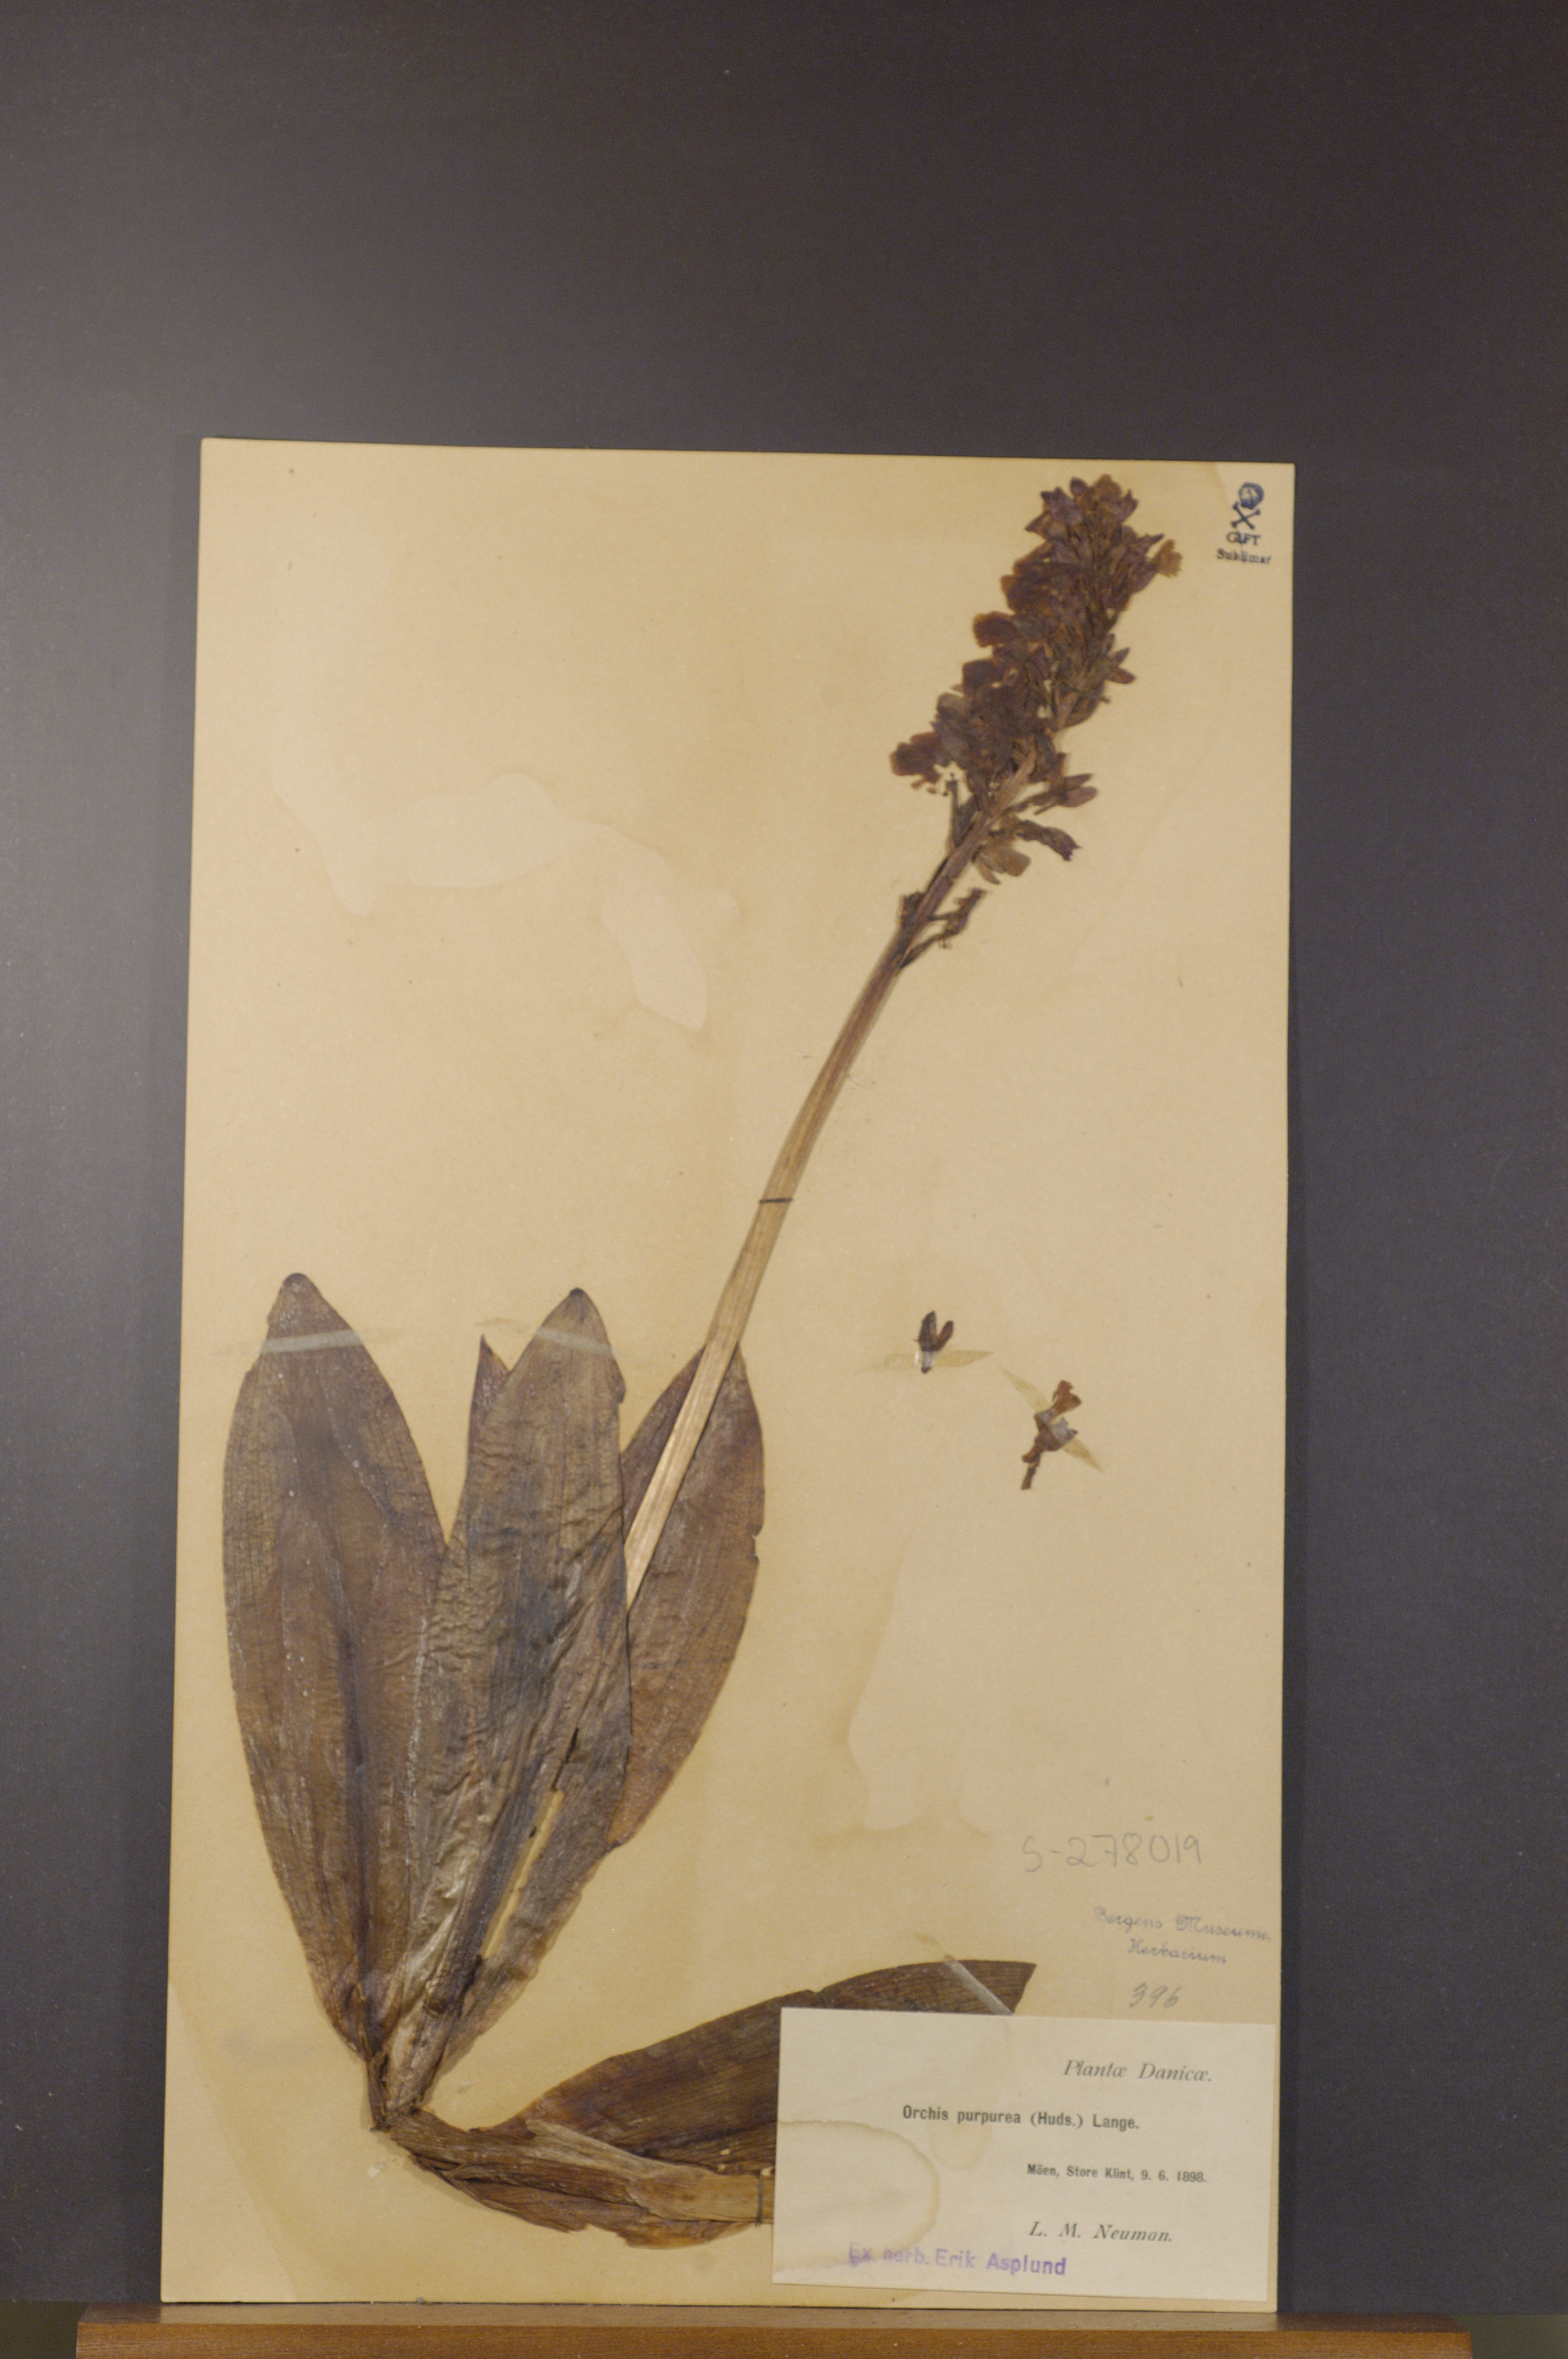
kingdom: Plantae
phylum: Tracheophyta
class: Liliopsida
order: Asparagales
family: Orchidaceae
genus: Orchis
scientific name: Orchis purpurea
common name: Lady orchid
